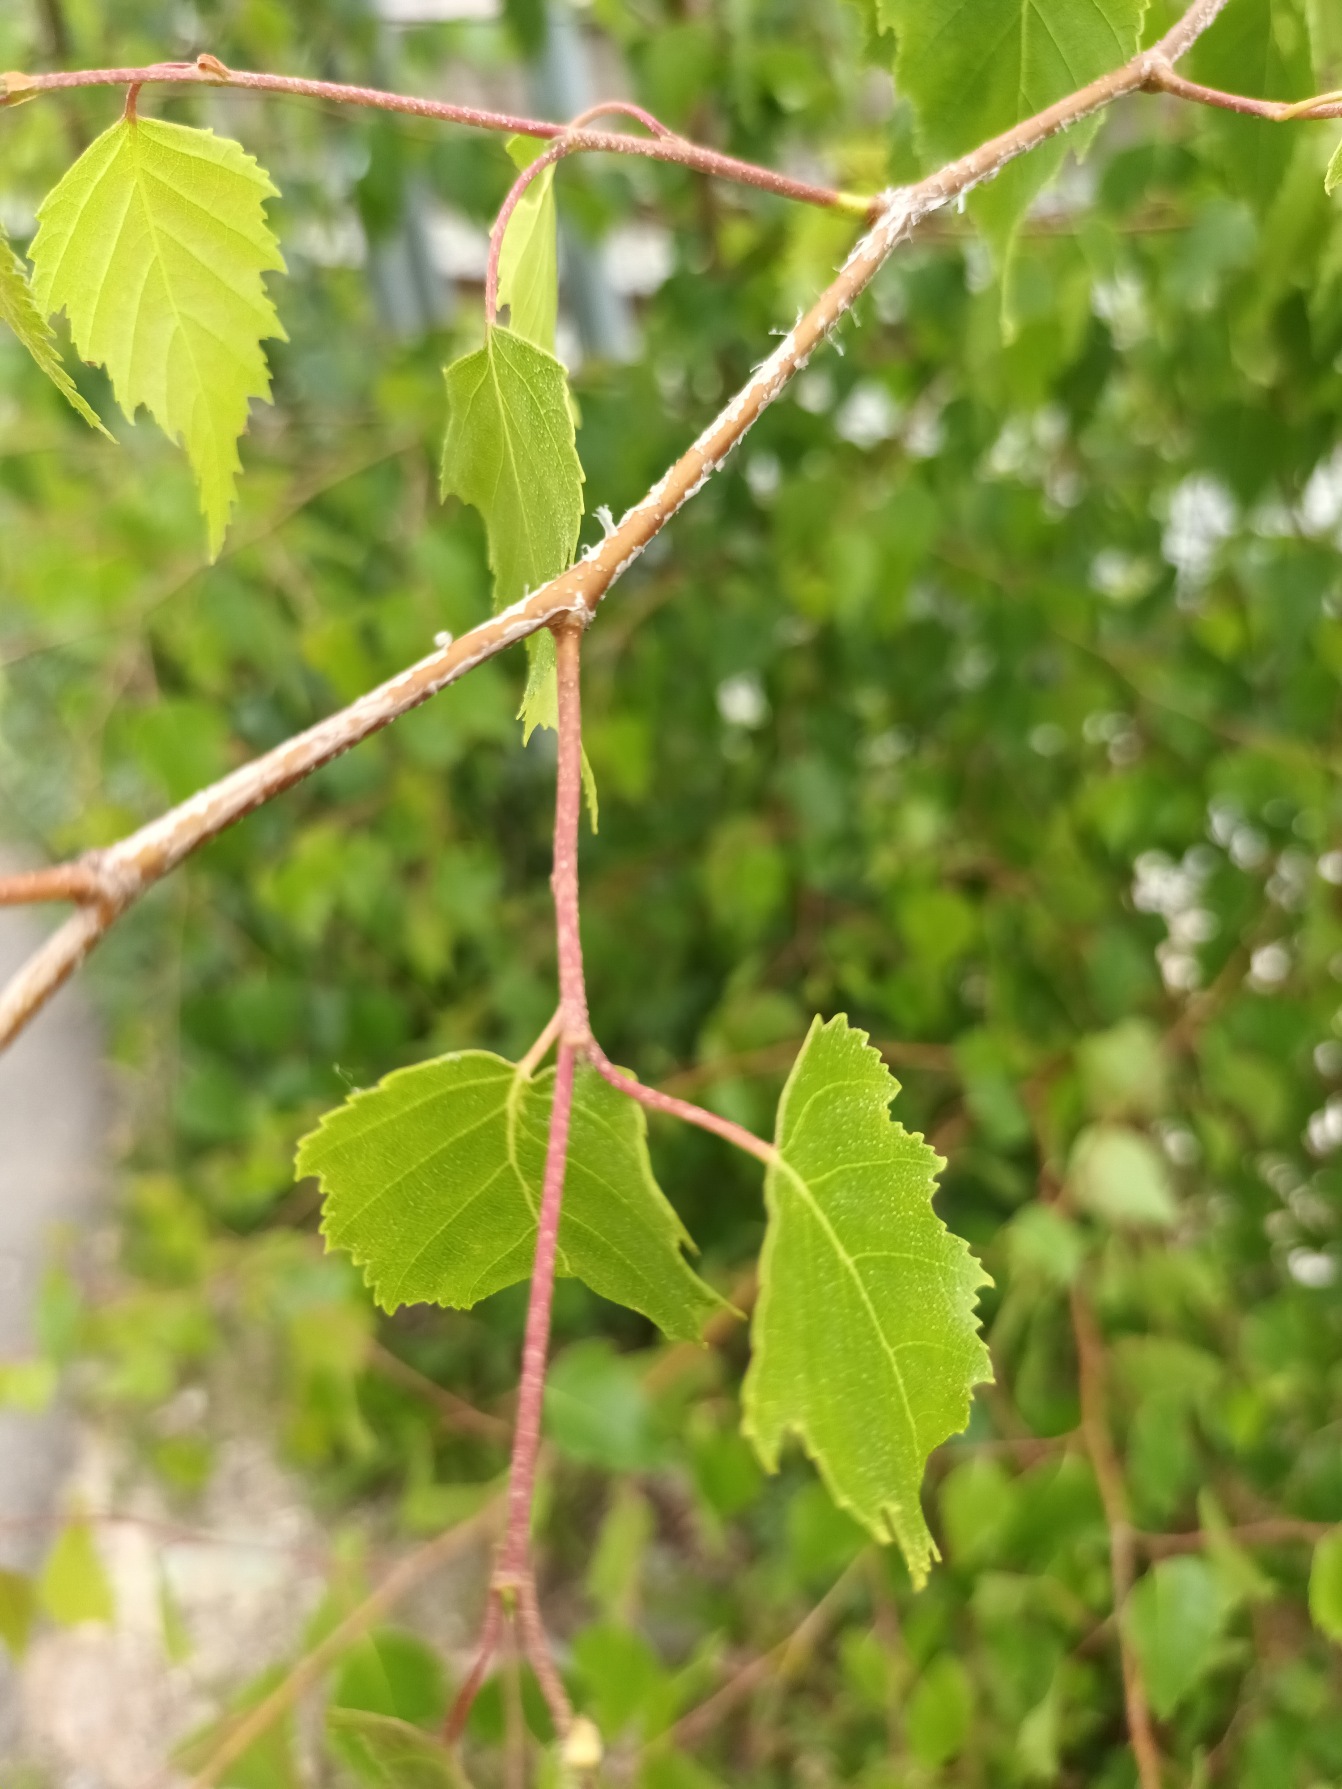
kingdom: Plantae
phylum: Tracheophyta
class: Magnoliopsida
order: Fagales
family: Betulaceae
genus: Betula
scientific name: Betula pendula
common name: Vorte-birk
